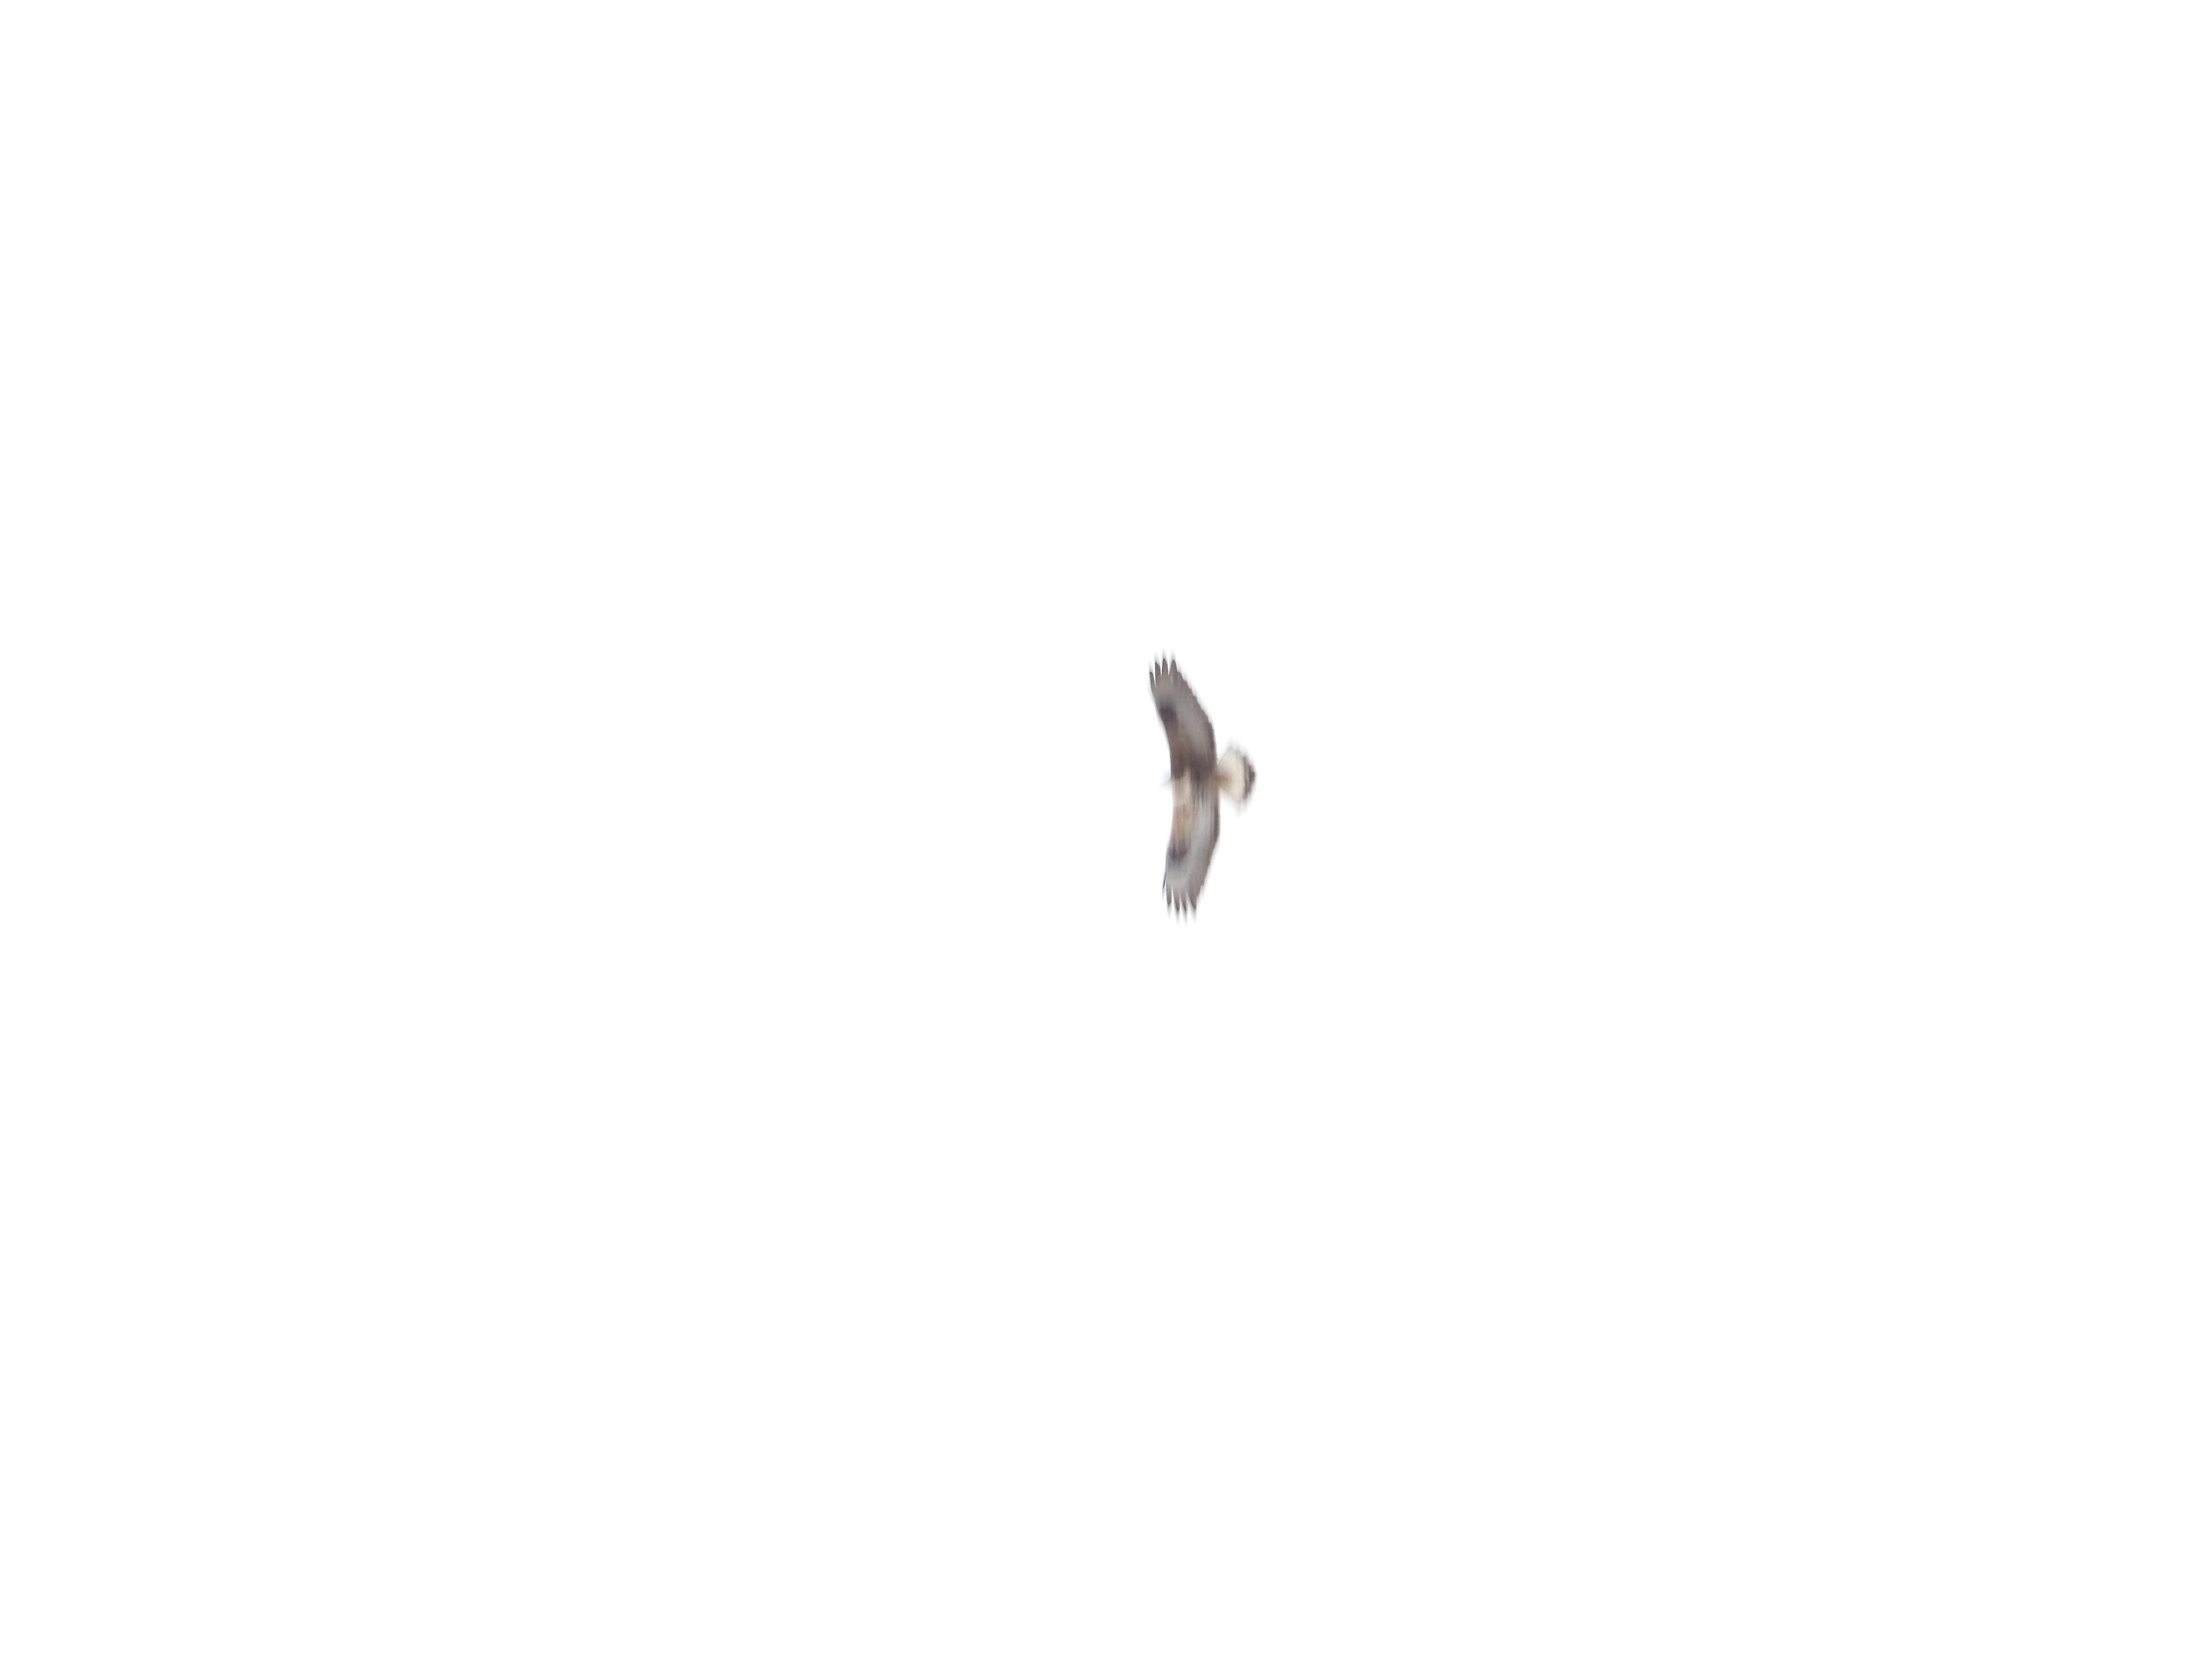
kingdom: Animalia
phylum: Chordata
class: Aves
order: Accipitriformes
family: Accipitridae
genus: Buteo
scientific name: Buteo lagopus
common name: Fjeldvåge
